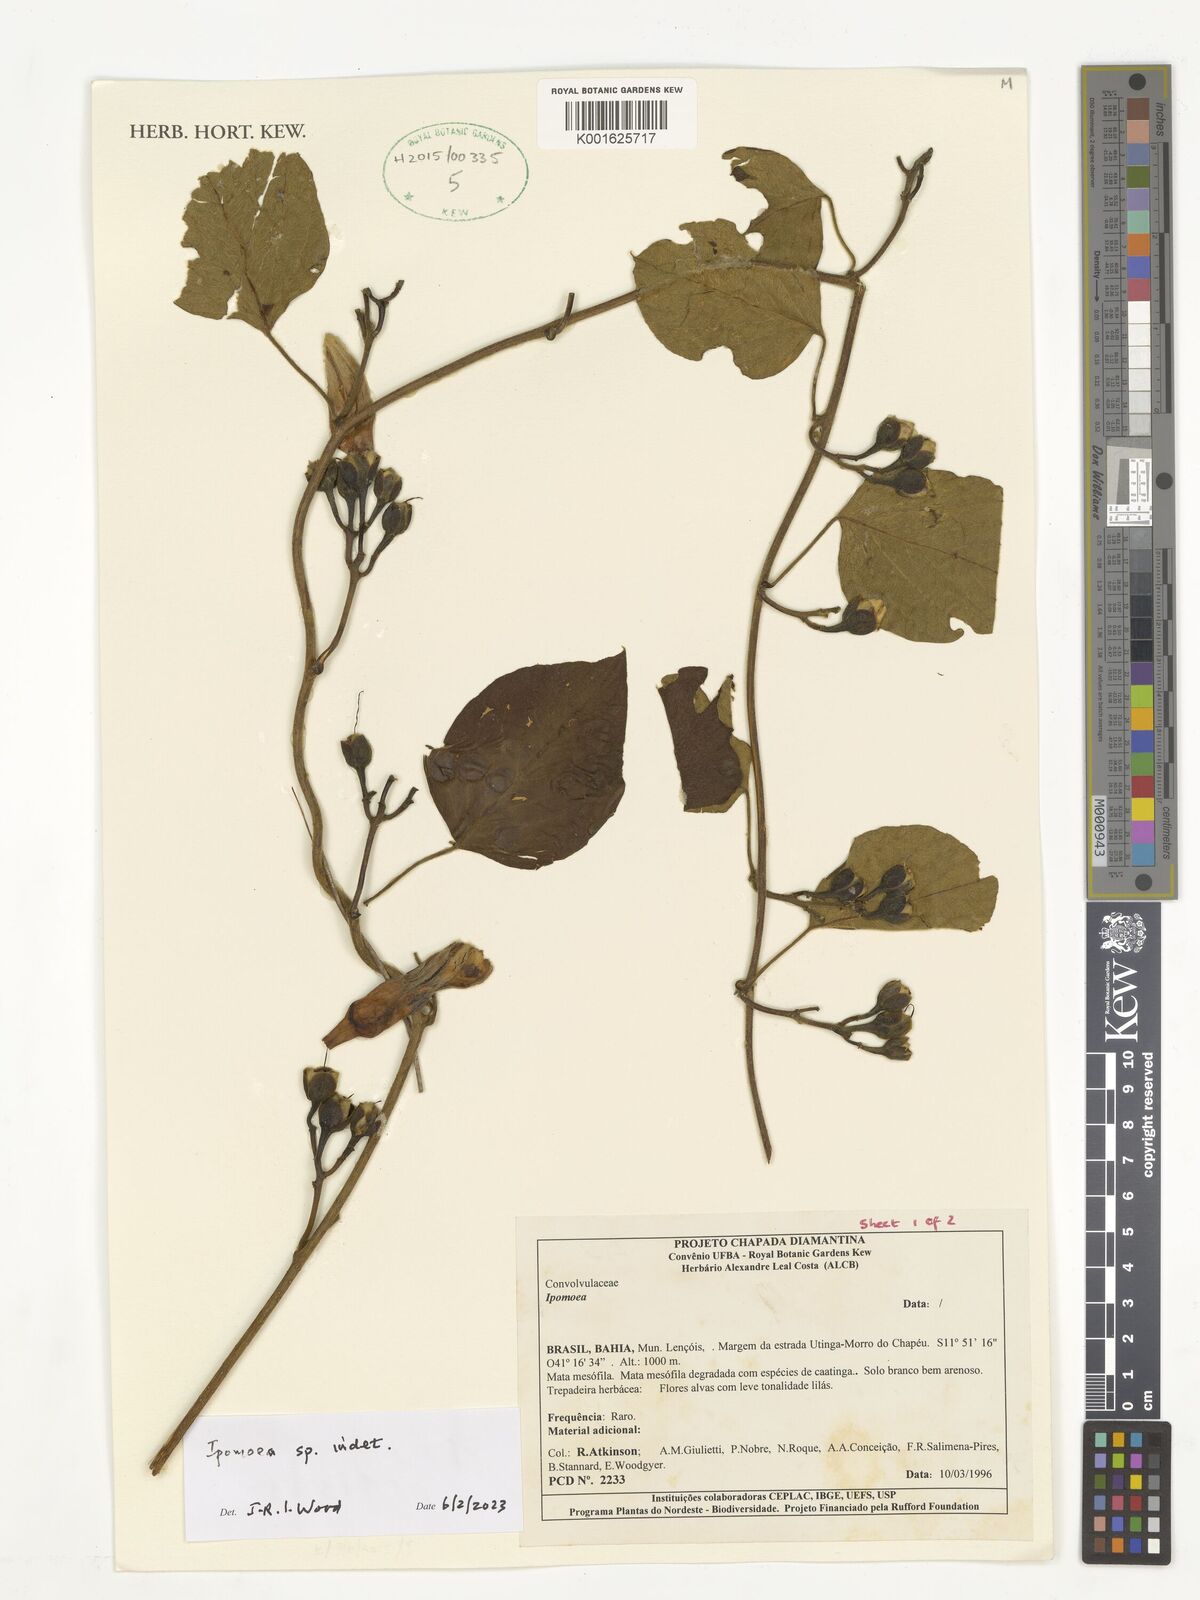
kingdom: Plantae
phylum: Tracheophyta
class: Magnoliopsida
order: Solanales
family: Convolvulaceae
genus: Ipomoea
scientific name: Ipomoea
